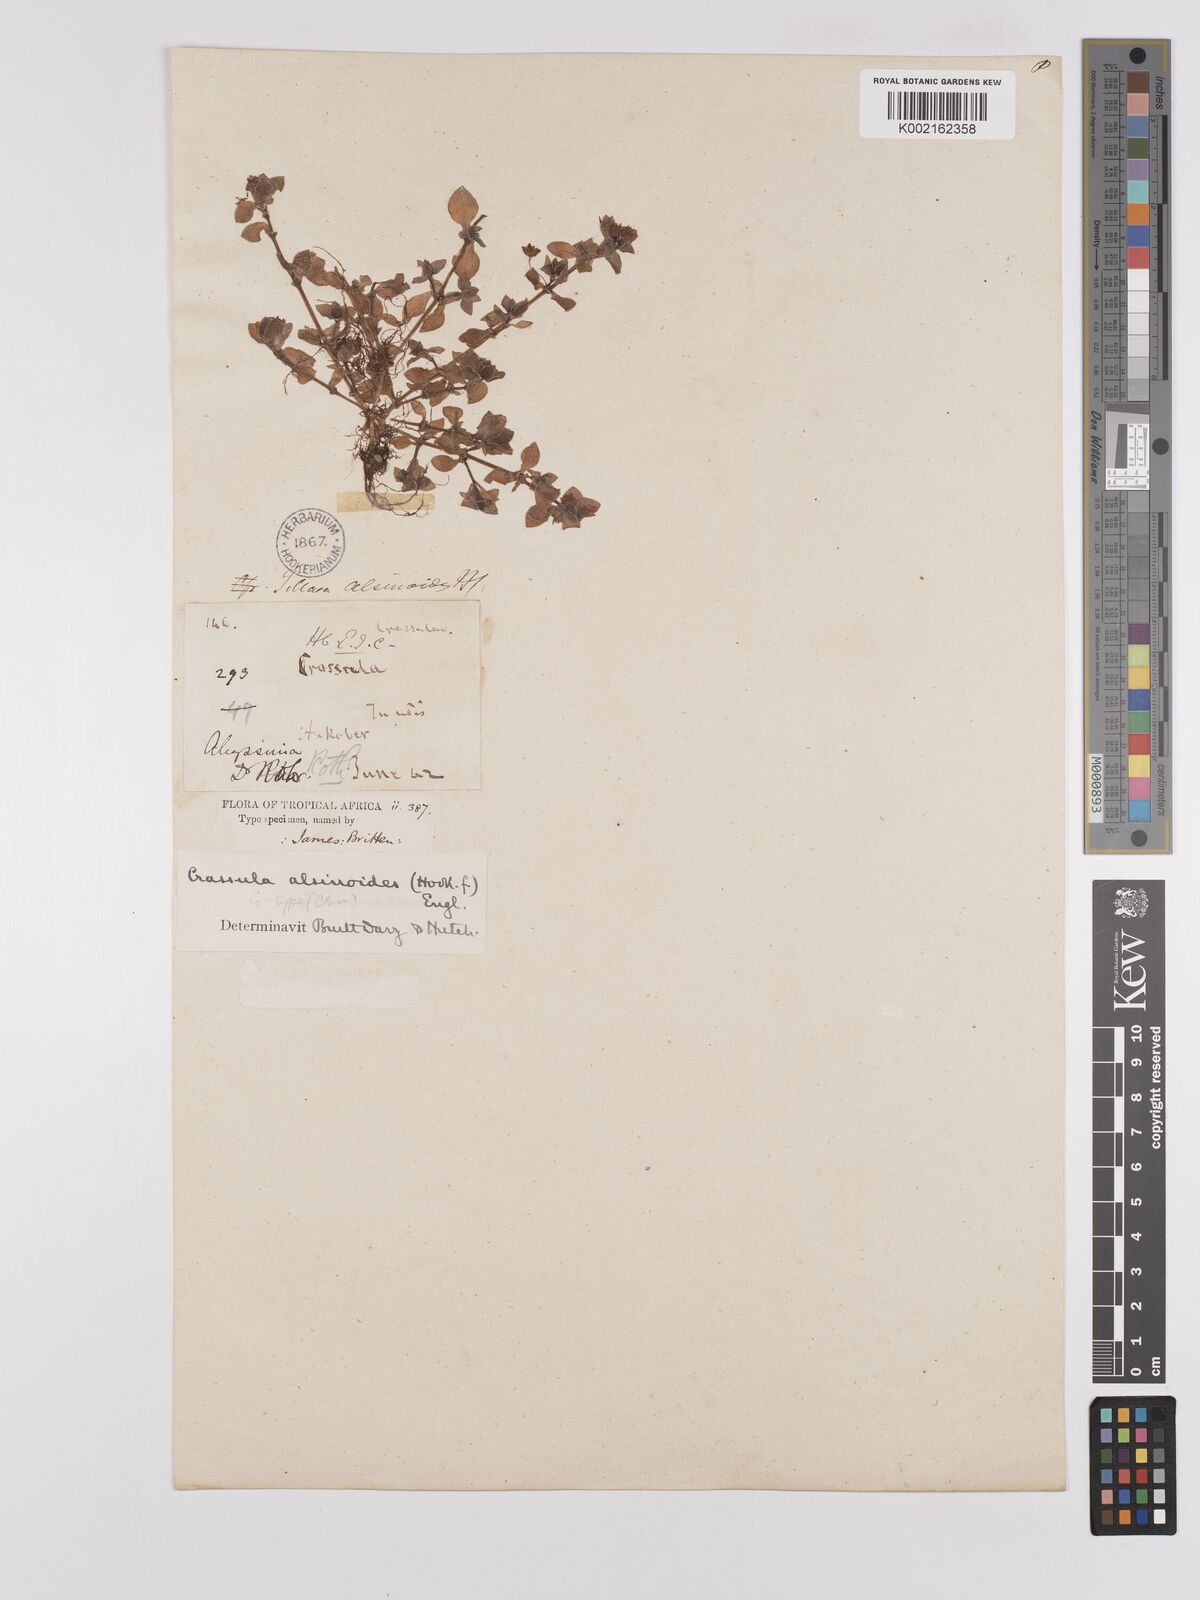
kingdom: Plantae
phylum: Tracheophyta
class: Magnoliopsida
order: Saxifragales
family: Crassulaceae
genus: Crassula
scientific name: Crassula alsinoides
